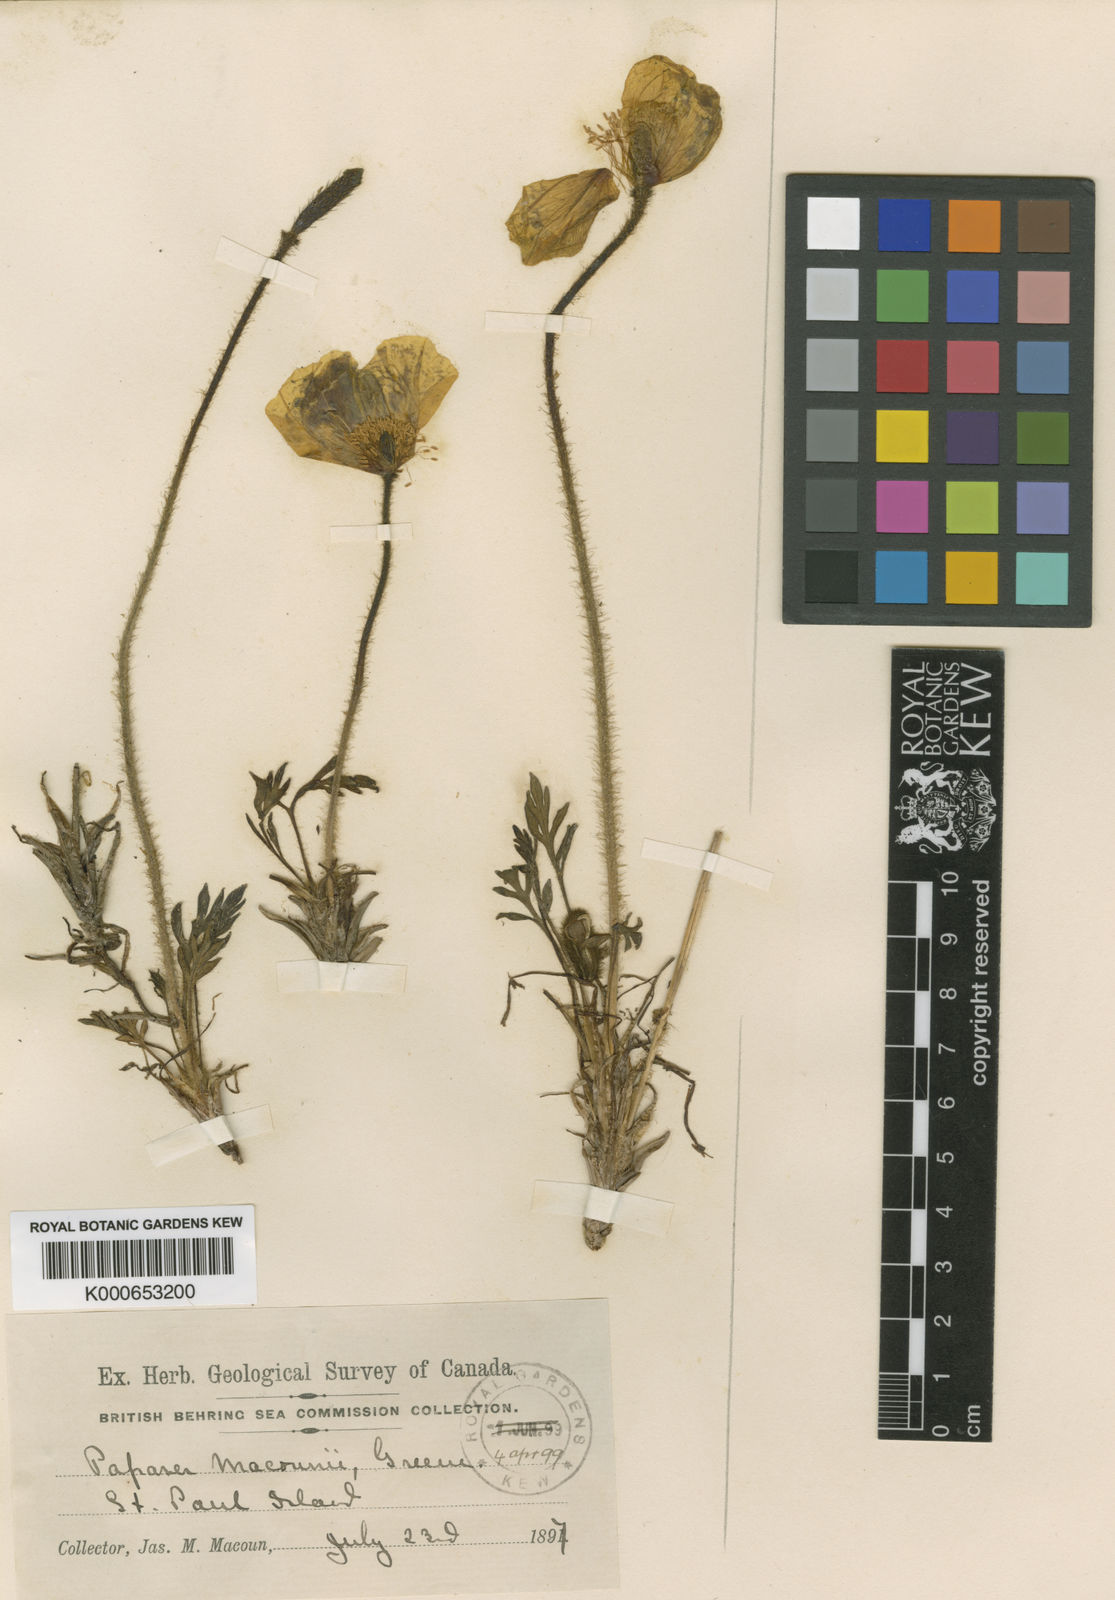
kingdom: Plantae
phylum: Tracheophyta
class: Magnoliopsida
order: Ranunculales
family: Papaveraceae
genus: Papaver
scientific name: Papaver macounii
